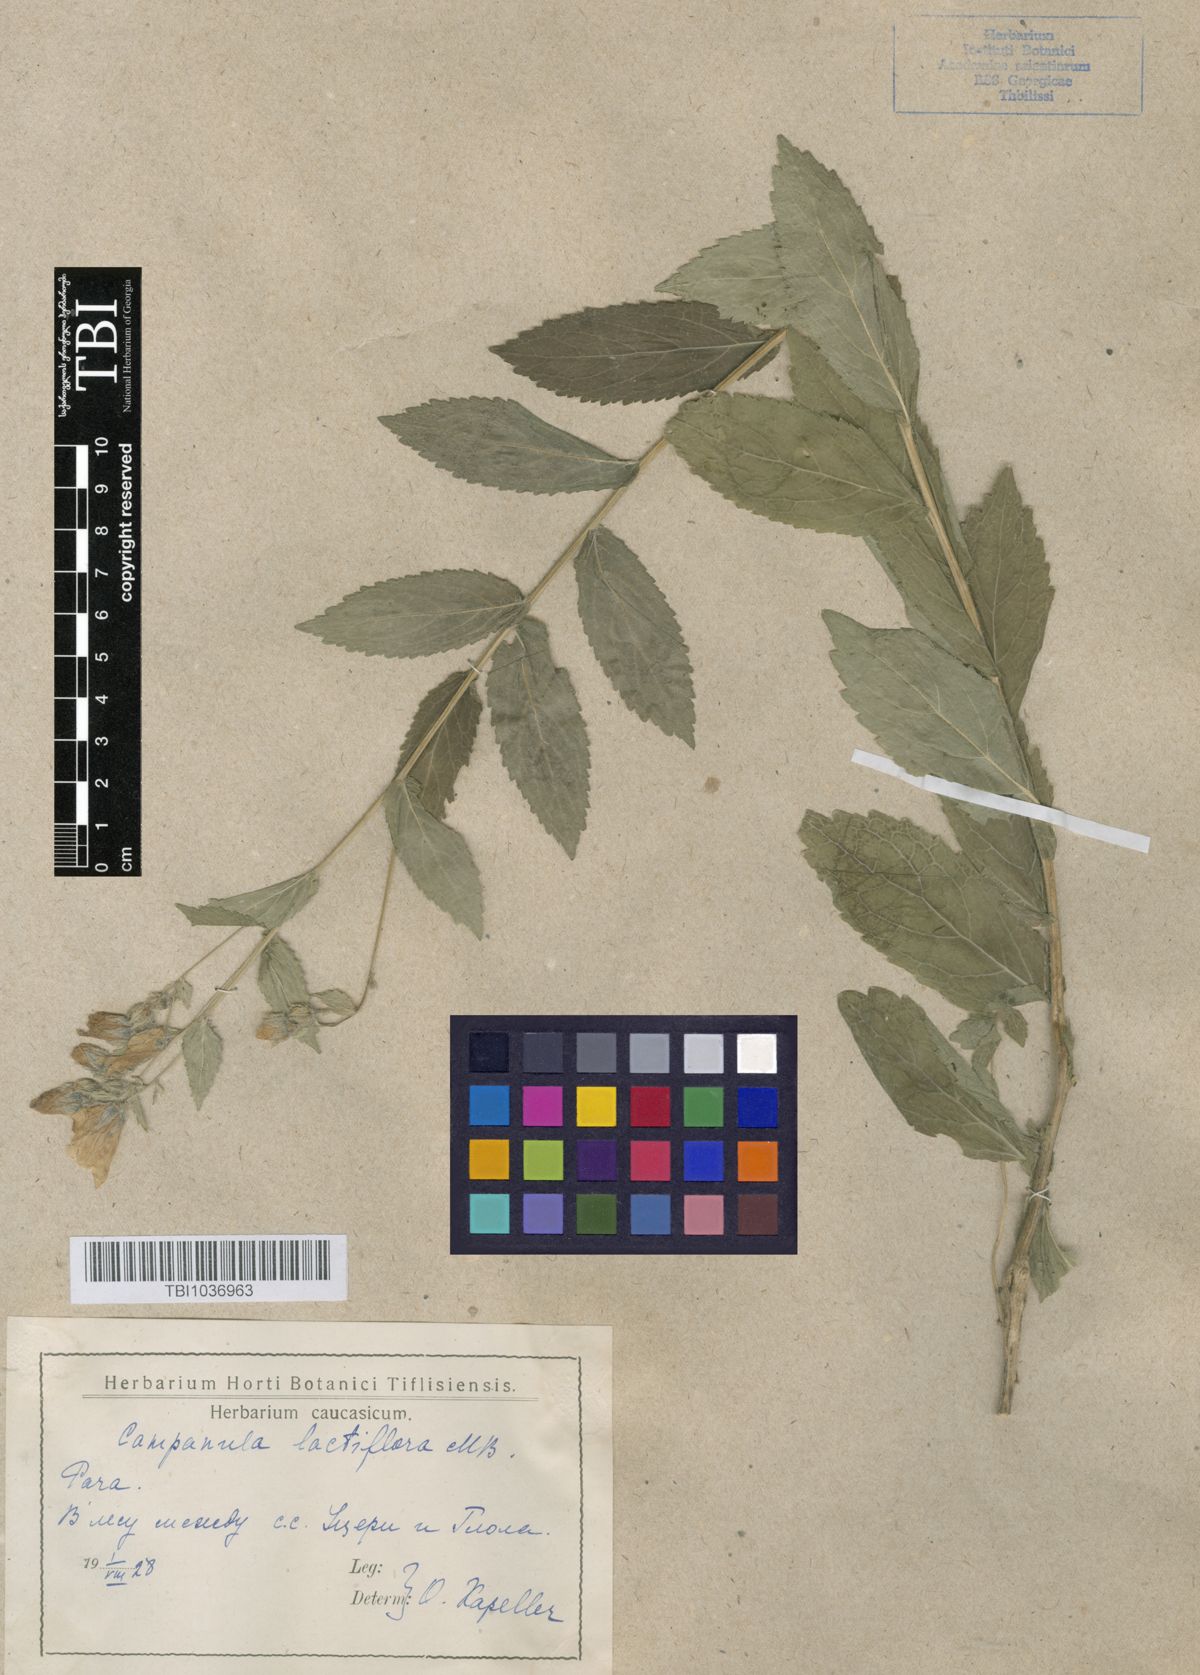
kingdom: Plantae
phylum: Tracheophyta
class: Magnoliopsida
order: Asterales
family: Campanulaceae
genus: Campanula
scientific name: Campanula lactiflora
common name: Milky bellflower
